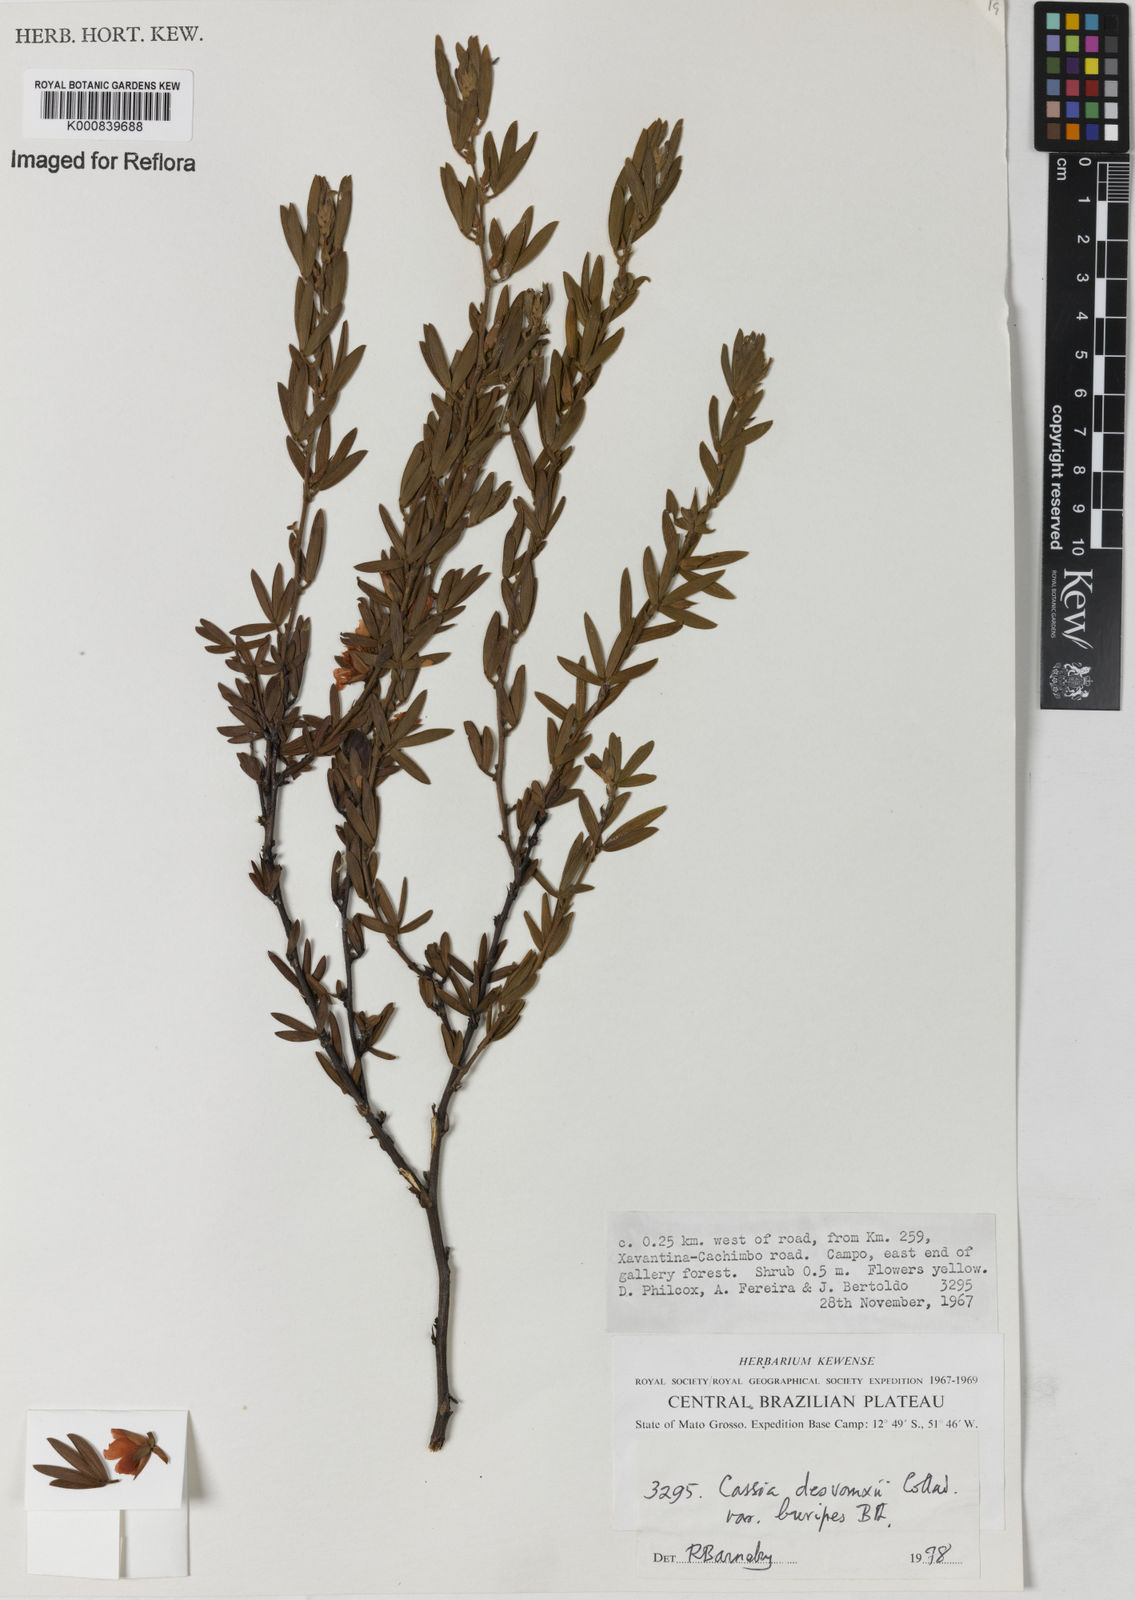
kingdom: Plantae
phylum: Tracheophyta
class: Magnoliopsida
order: Fabales
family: Fabaceae
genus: Chamaecrista
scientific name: Chamaecrista desvauxii
